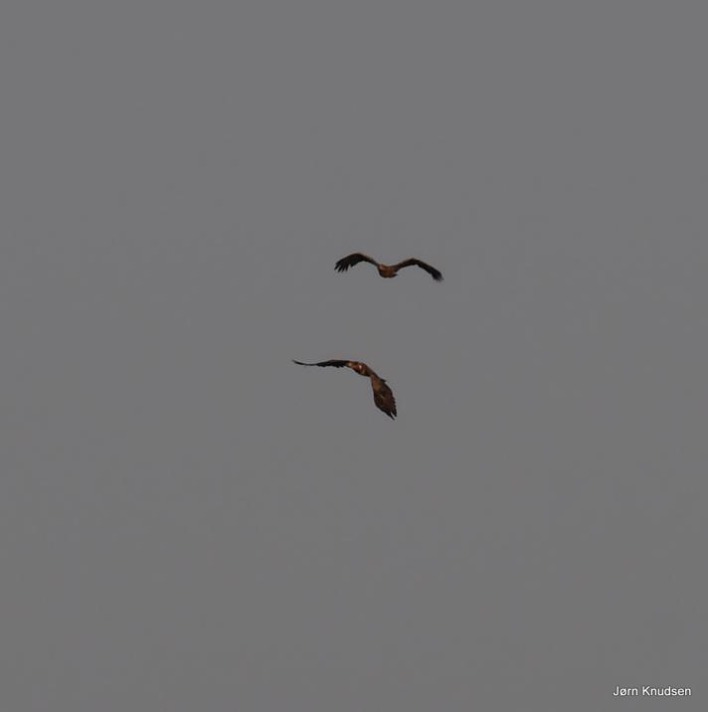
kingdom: Animalia
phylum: Chordata
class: Aves
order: Accipitriformes
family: Accipitridae
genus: Haliaeetus
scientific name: Haliaeetus albicilla
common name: Havørn
